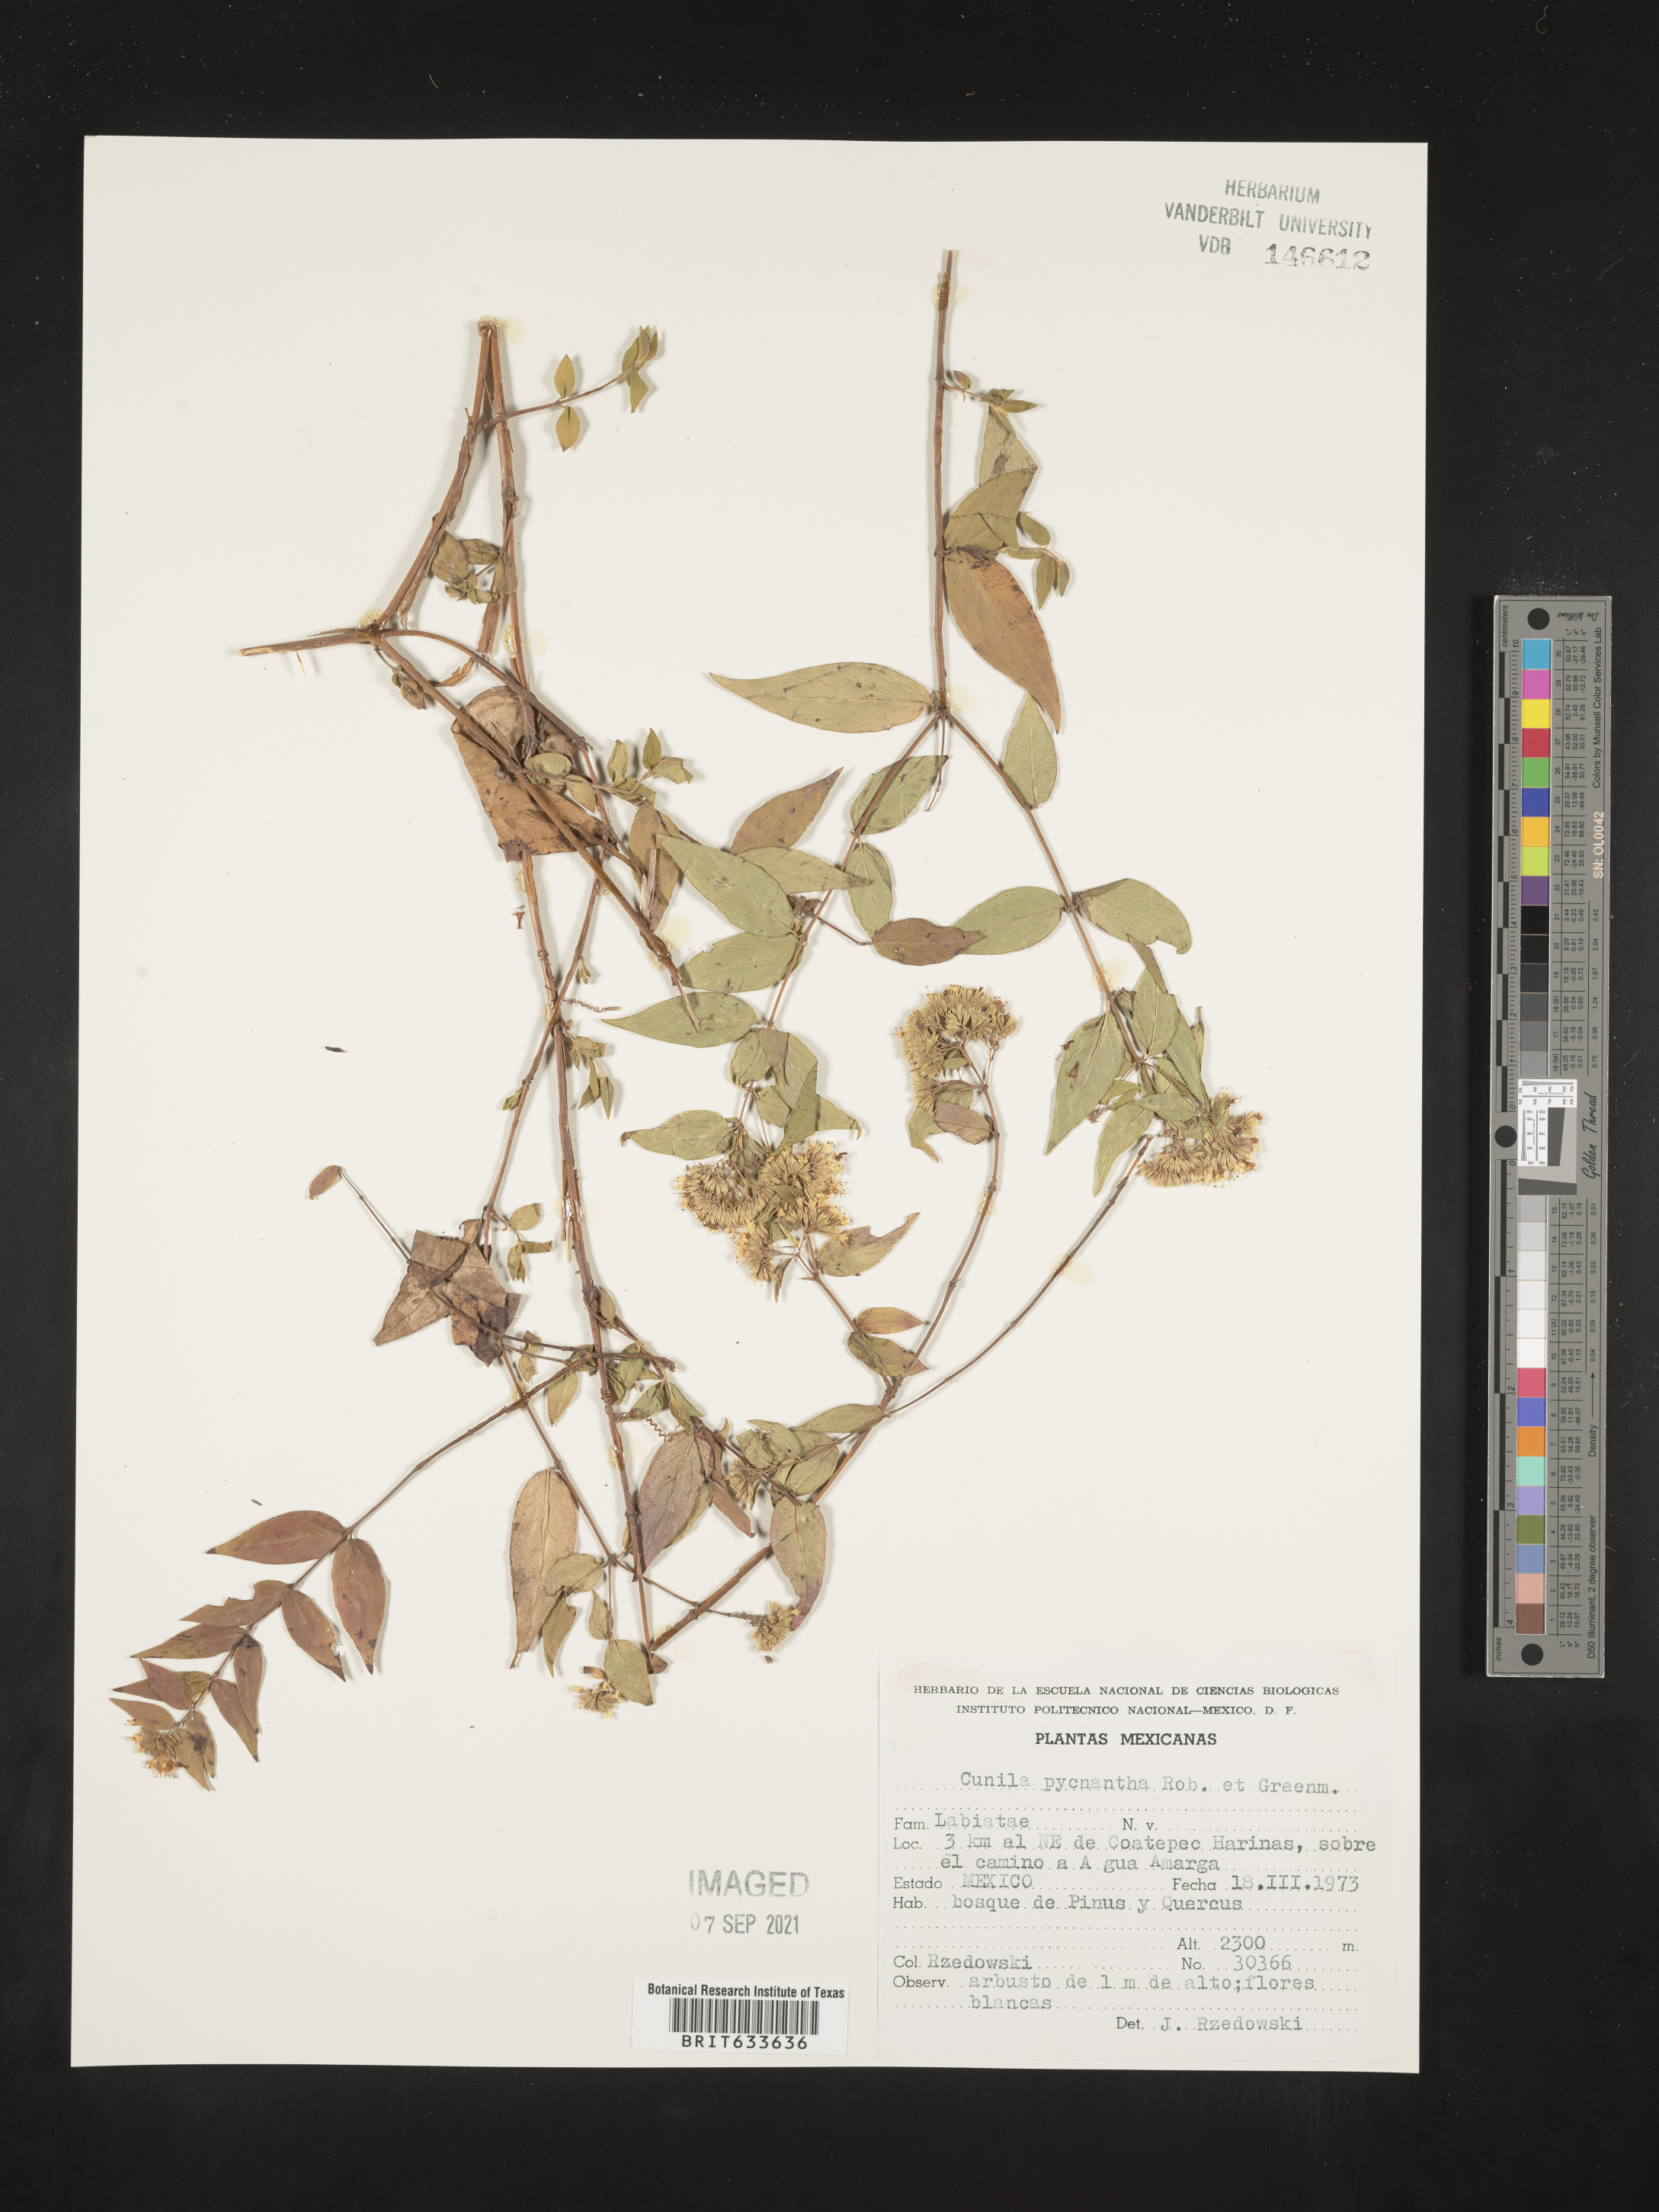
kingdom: Plantae
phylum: Tracheophyta
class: Magnoliopsida
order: Lamiales
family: Lamiaceae
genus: Cunila
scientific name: Cunila
